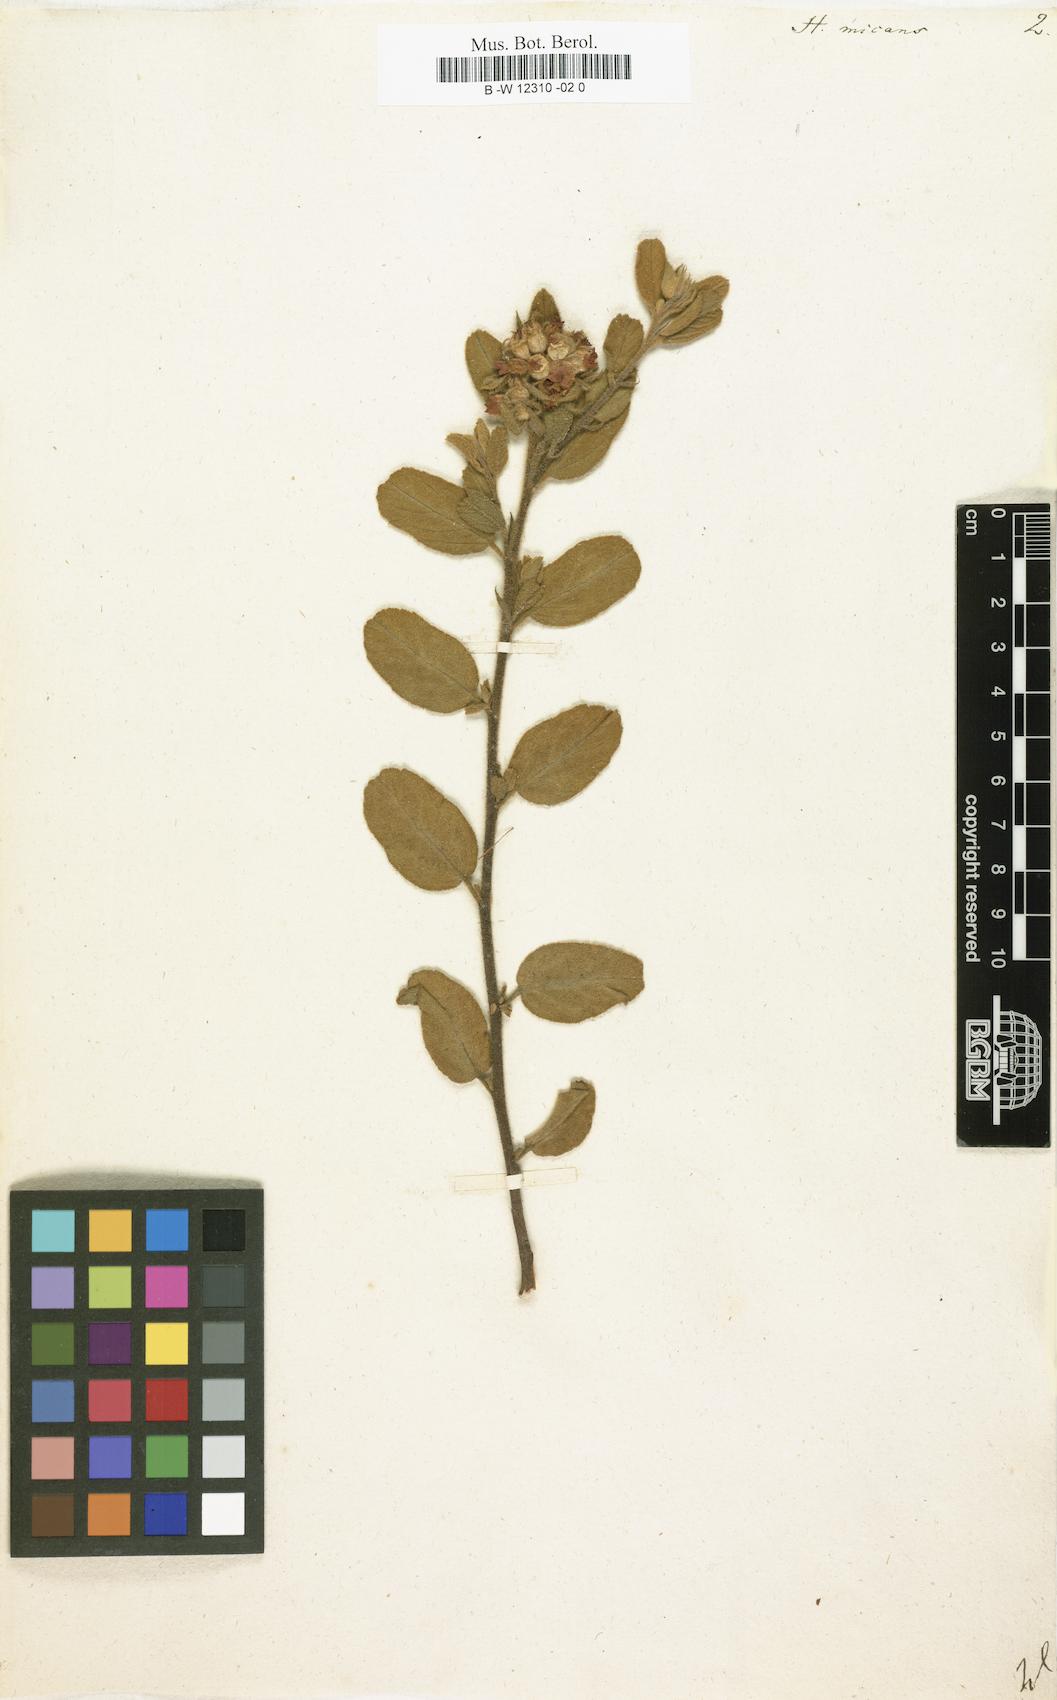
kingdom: Plantae
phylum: Tracheophyta
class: Magnoliopsida
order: Malvales
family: Malvaceae
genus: Hermannia
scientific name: Hermannia salviifolia
